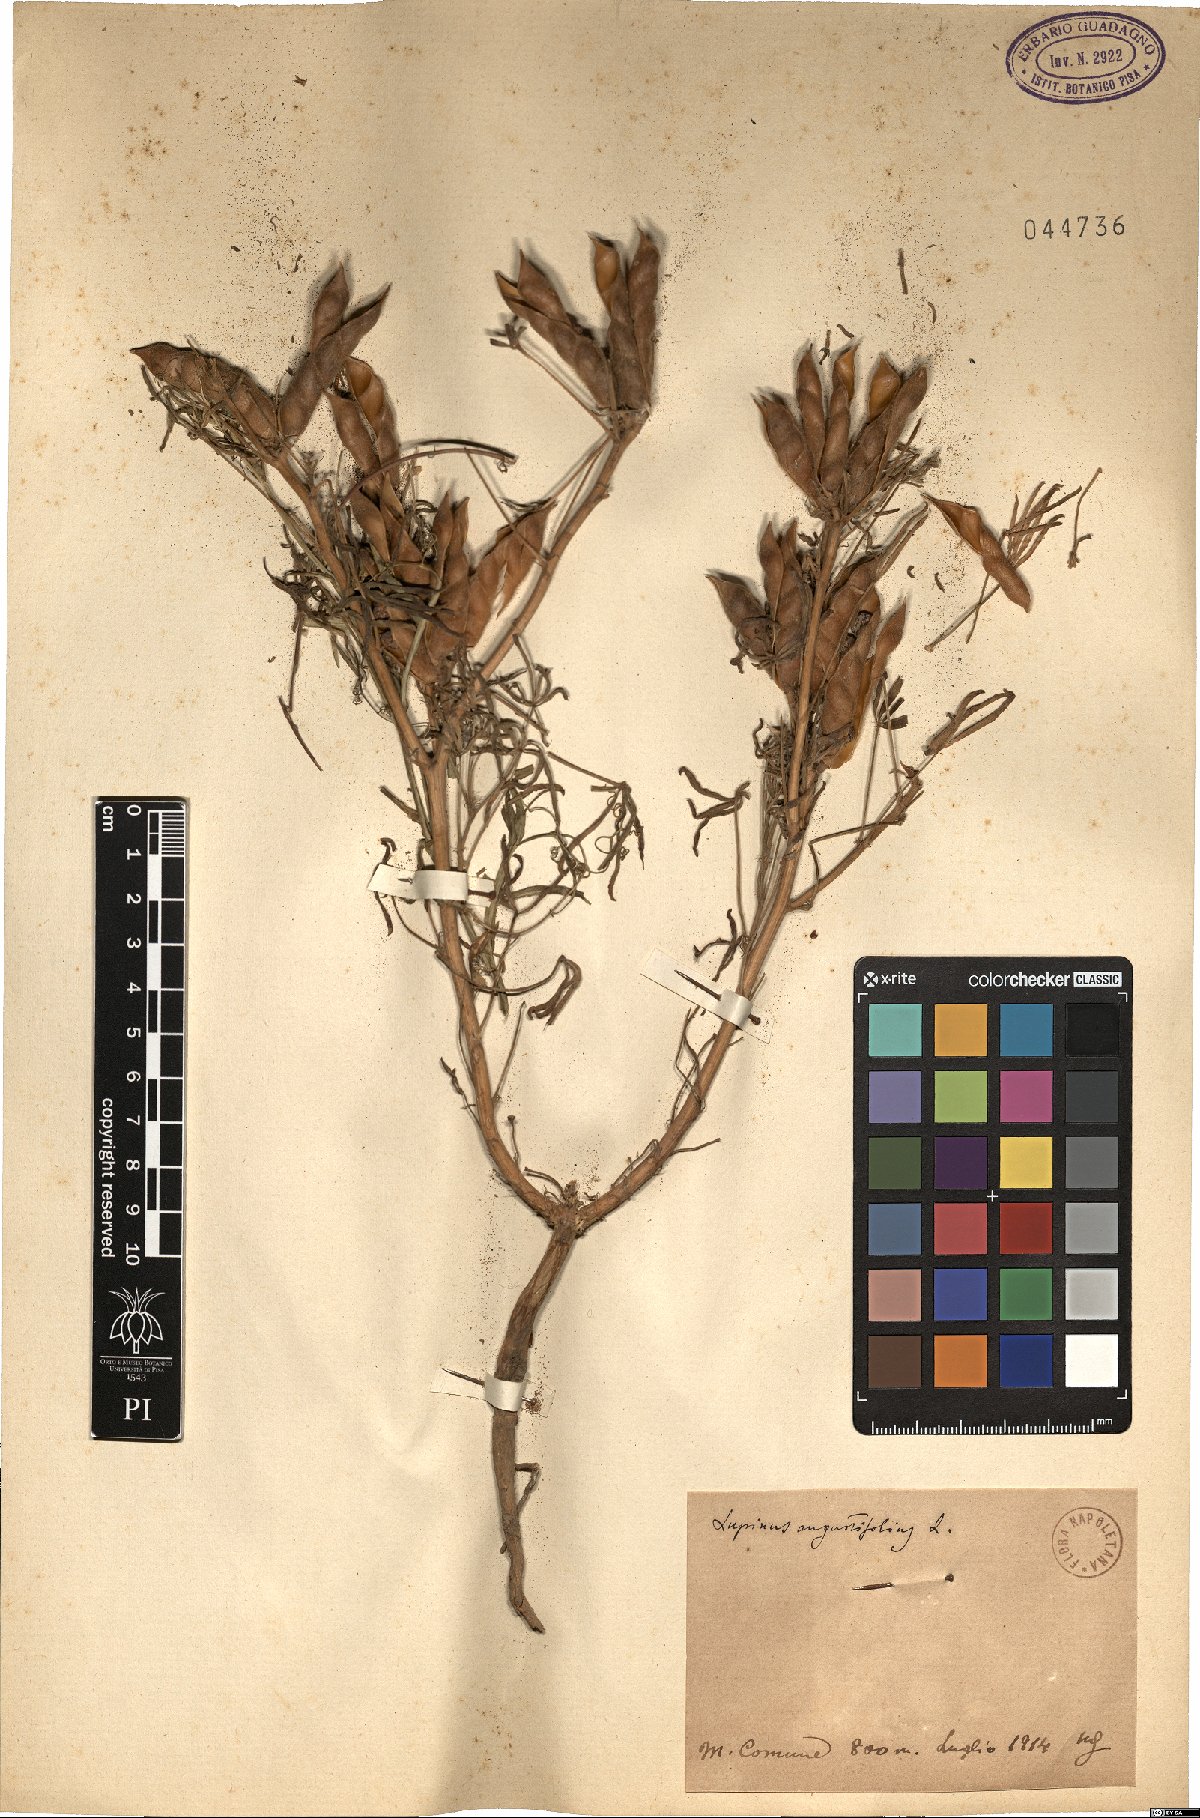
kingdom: Plantae
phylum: Tracheophyta
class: Magnoliopsida
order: Fabales
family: Fabaceae
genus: Lupinus
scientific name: Lupinus angustifolius
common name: Narrow-leaved lupin
